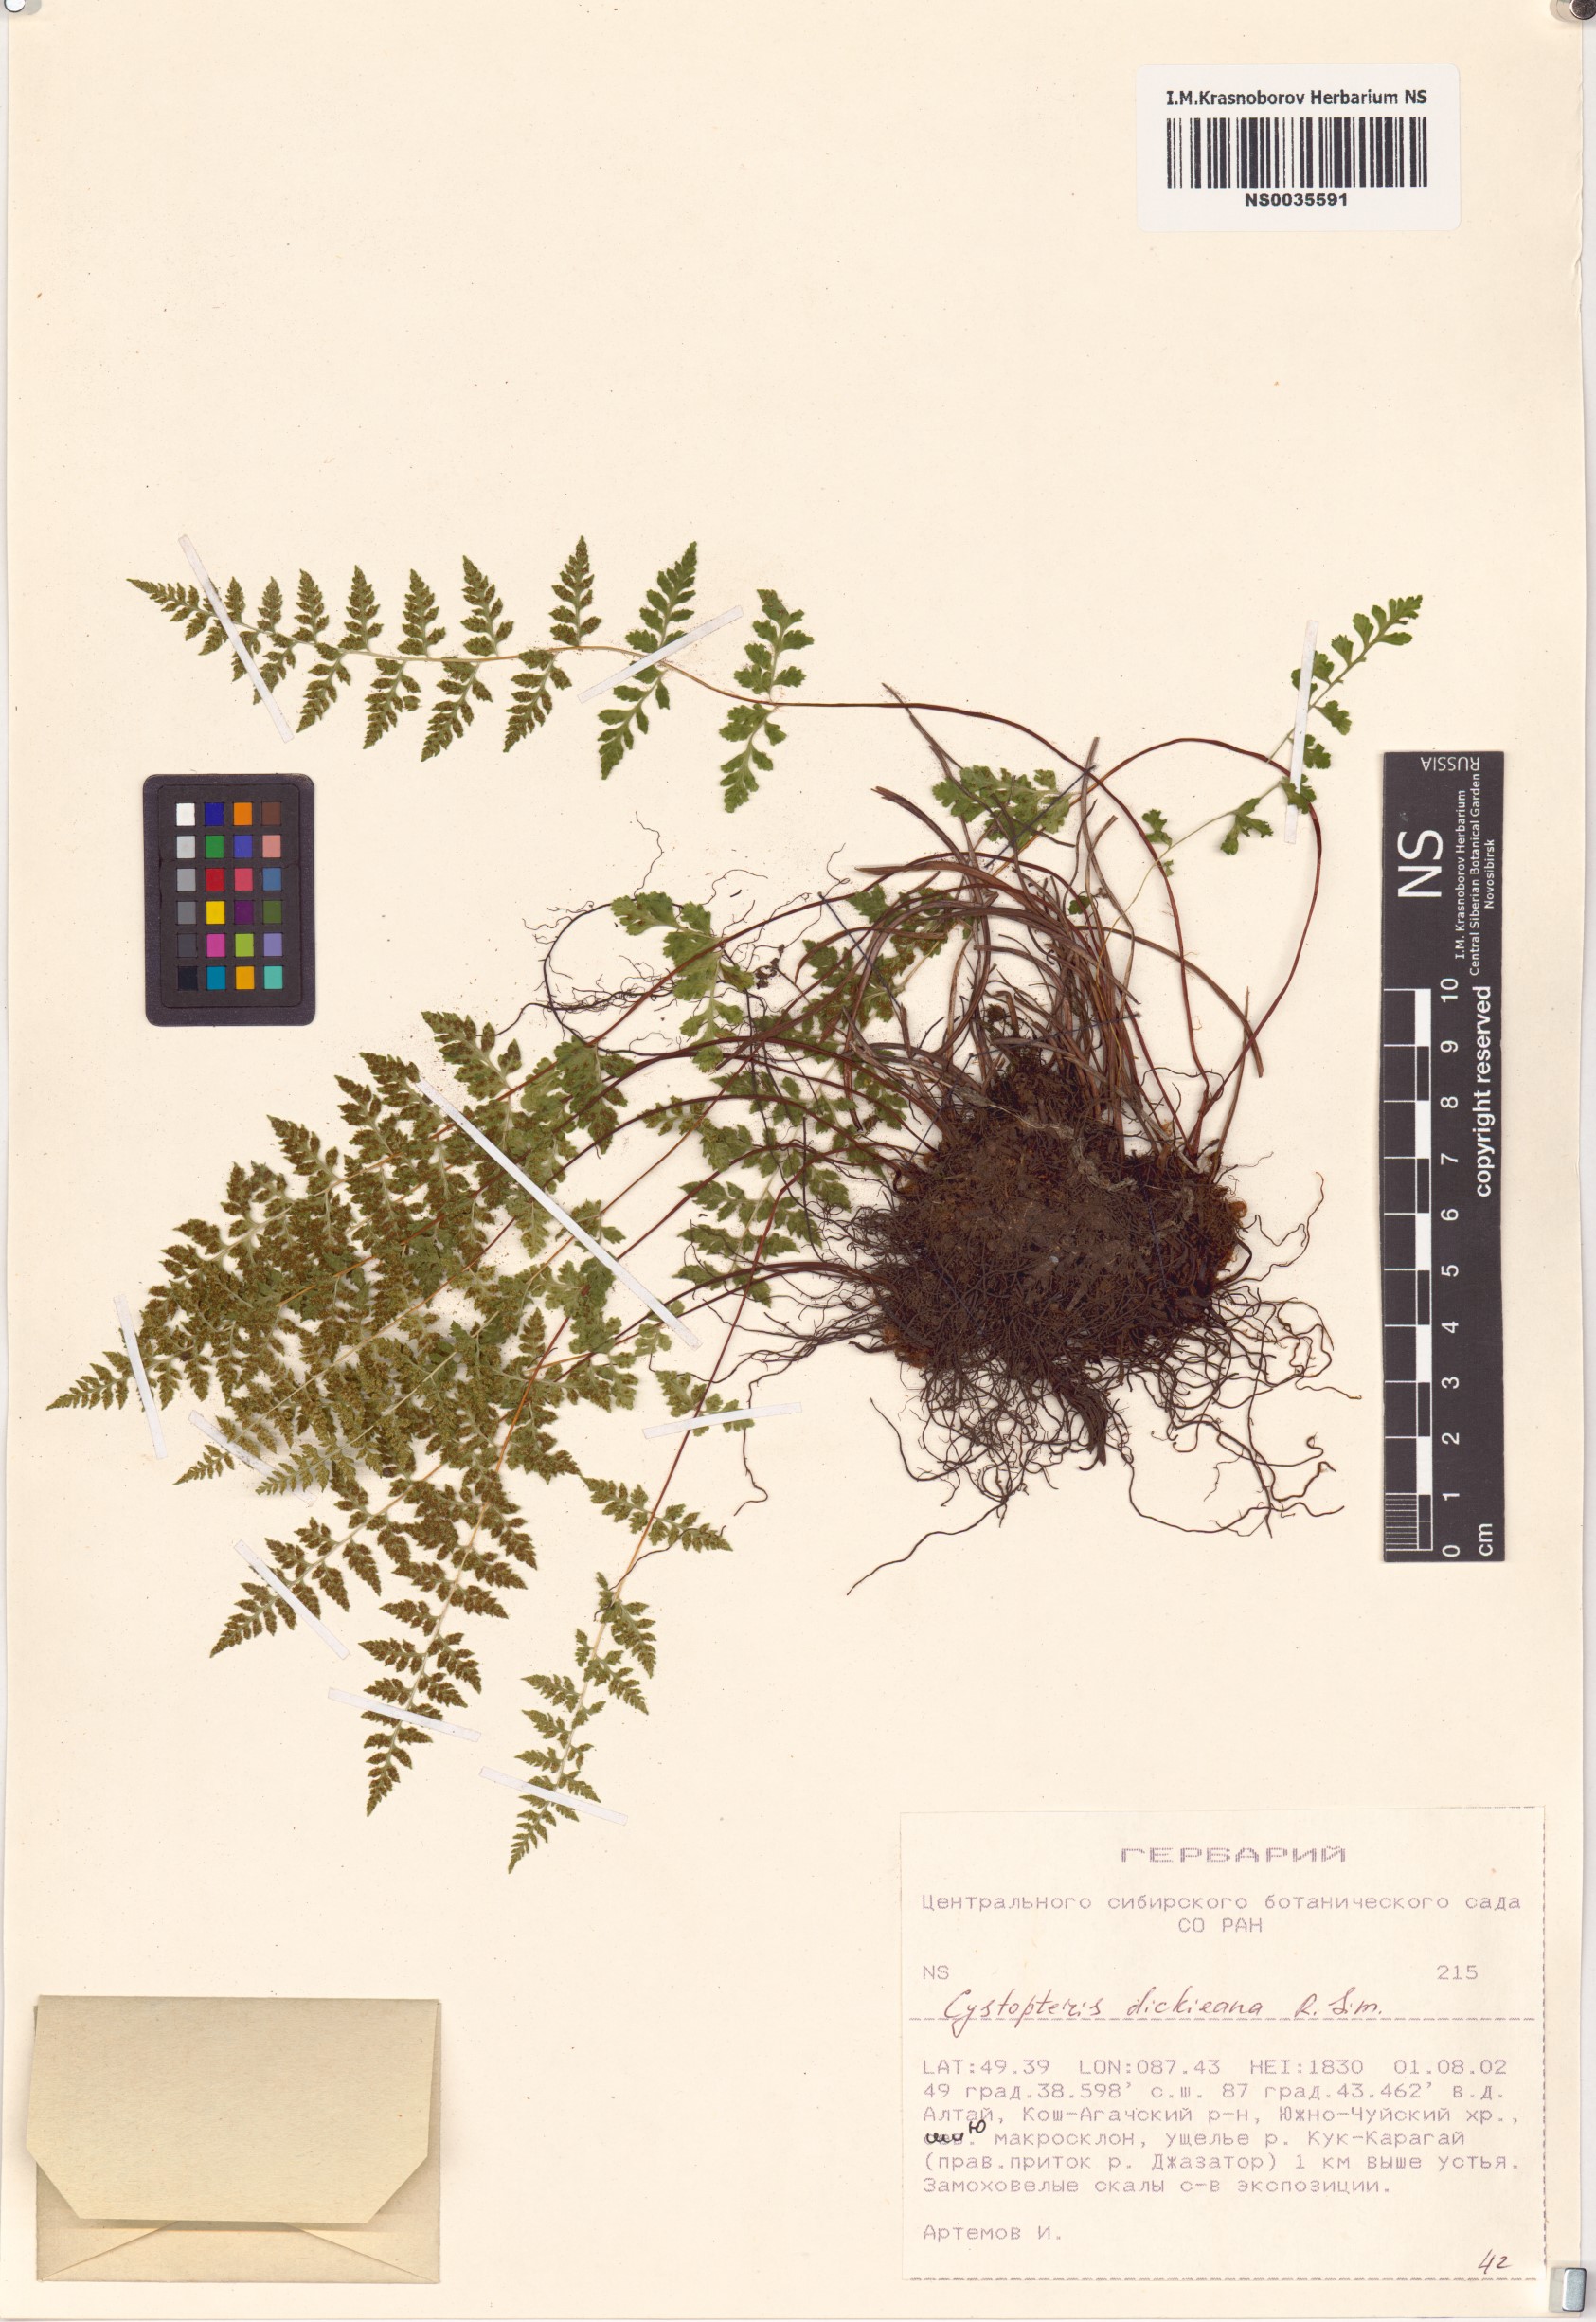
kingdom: Plantae
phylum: Tracheophyta
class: Polypodiopsida
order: Polypodiales
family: Cystopteridaceae
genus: Cystopteris
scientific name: Cystopteris dickieana
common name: Dickie's bladder-fern
